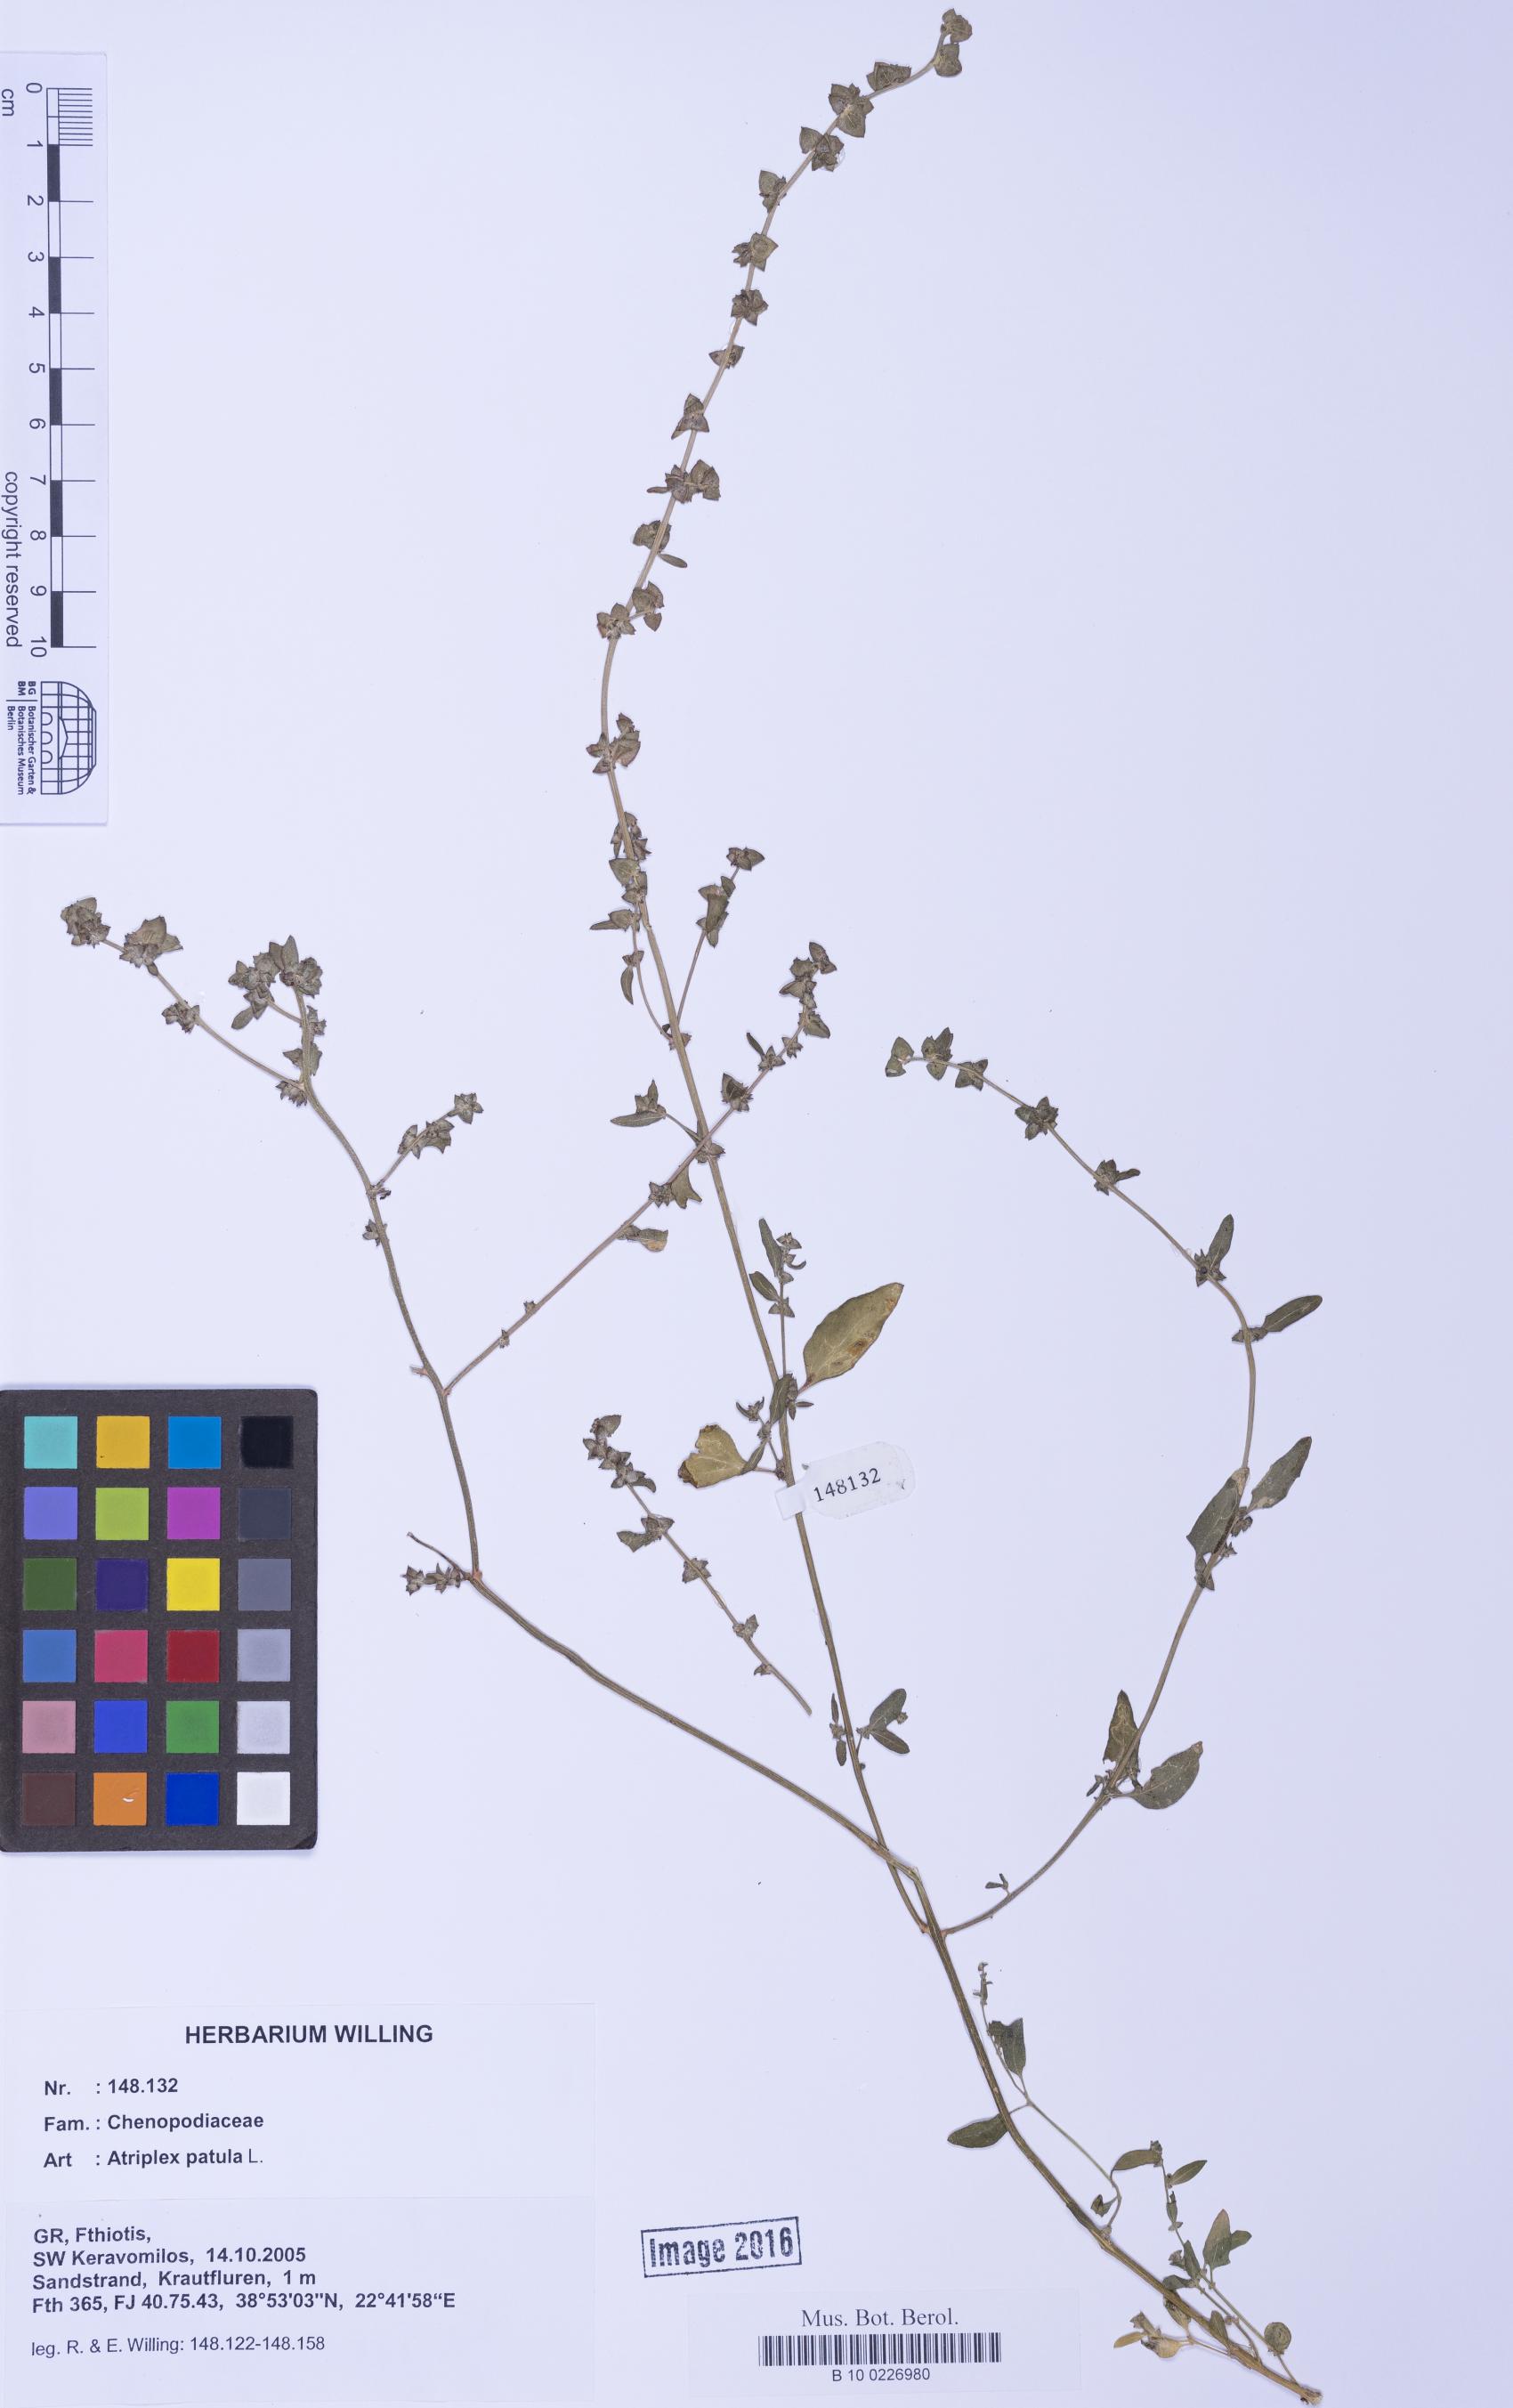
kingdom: Plantae
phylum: Tracheophyta
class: Magnoliopsida
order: Caryophyllales
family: Amaranthaceae
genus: Atriplex
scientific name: Atriplex patula
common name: Common orache
